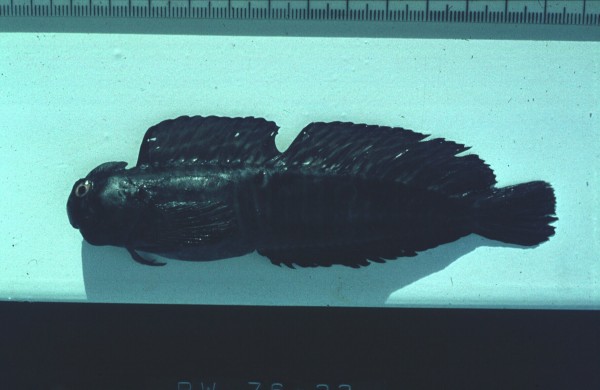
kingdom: Animalia
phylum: Chordata
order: Perciformes
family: Blenniidae
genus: Istiblennius
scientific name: Istiblennius edentulus
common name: Rippled rockskipper
